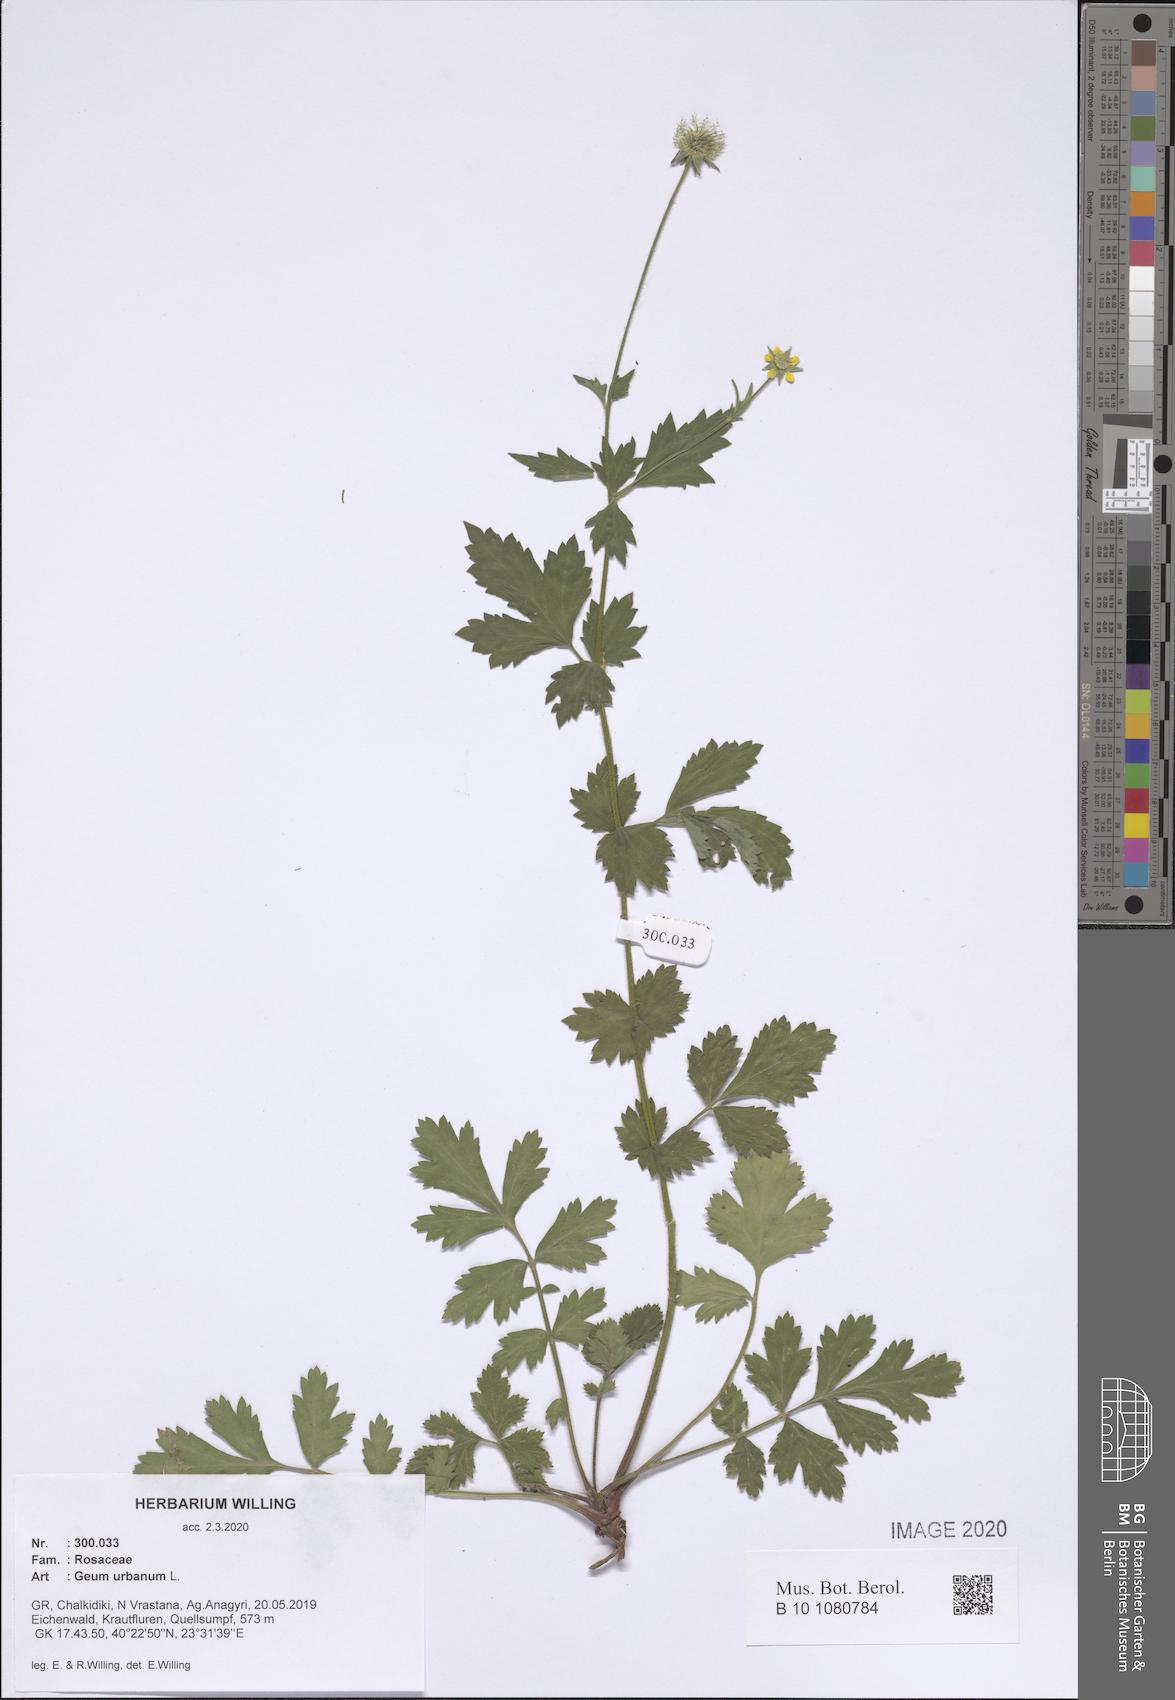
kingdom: Plantae
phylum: Tracheophyta
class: Magnoliopsida
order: Rosales
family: Rosaceae
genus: Geum
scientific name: Geum urbanum
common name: Wood avens
